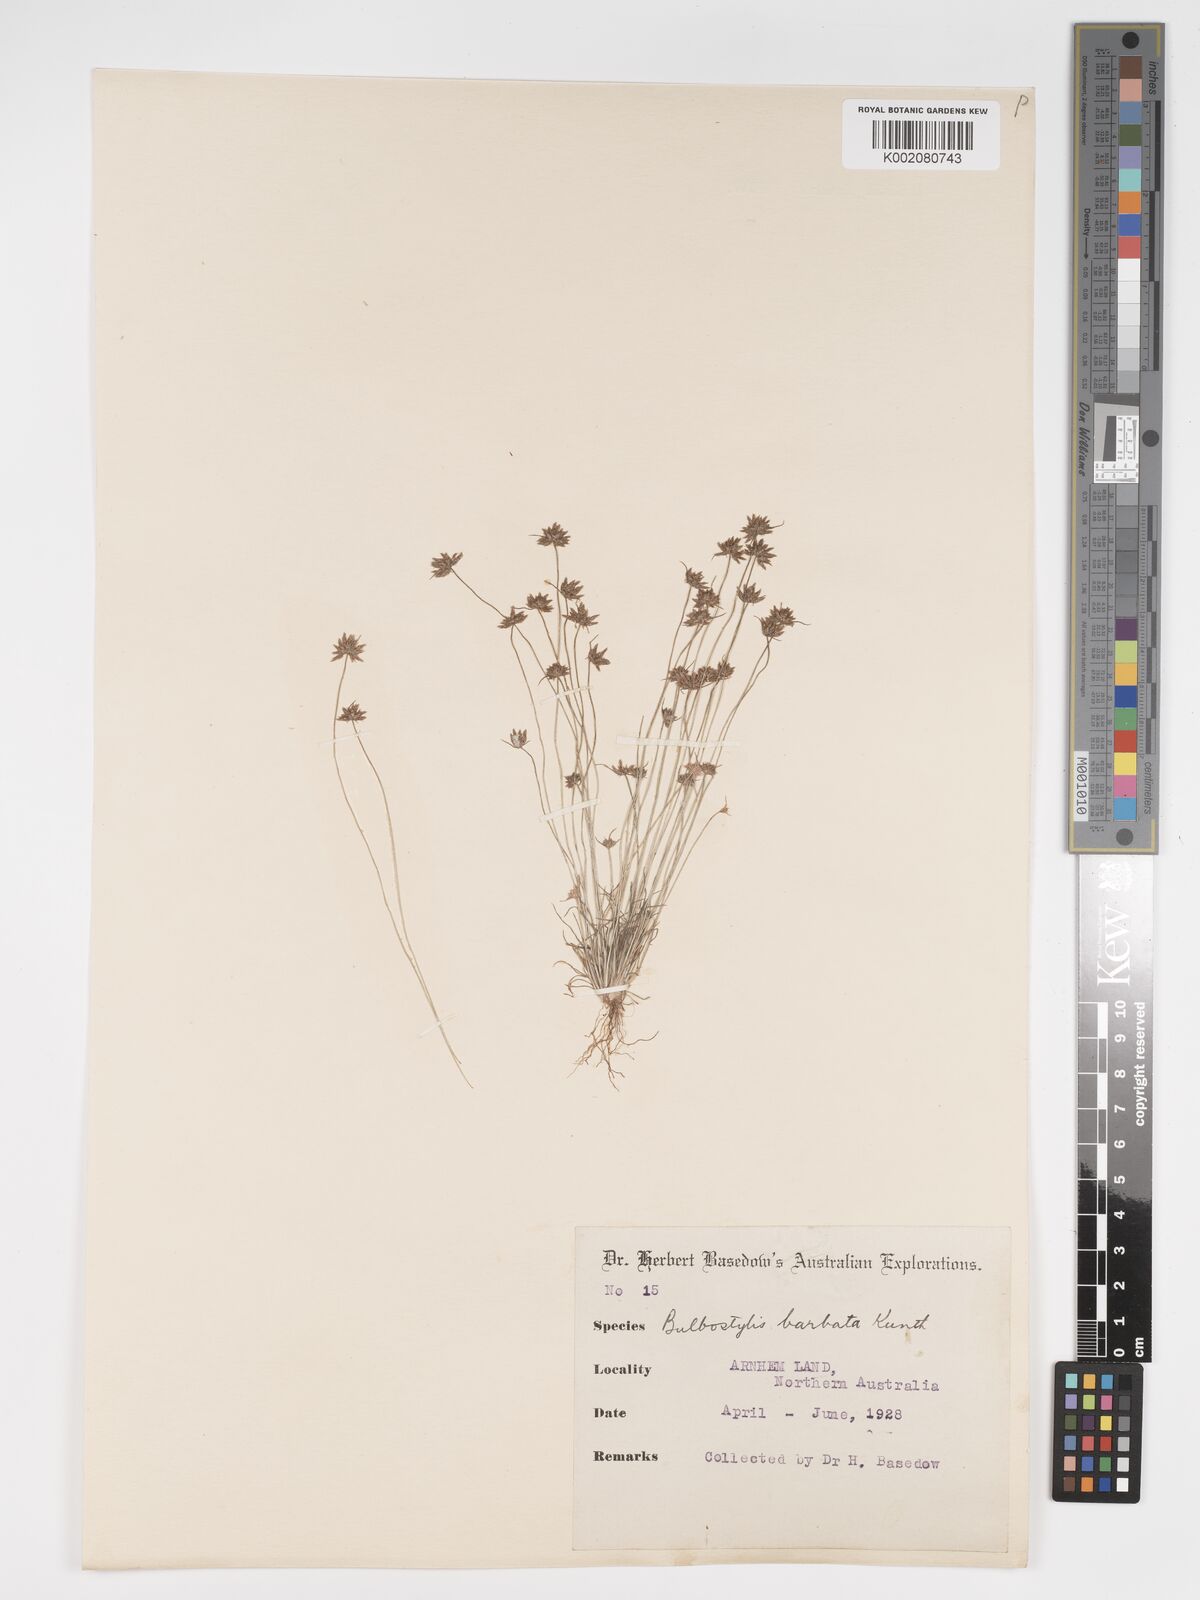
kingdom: Plantae
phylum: Tracheophyta
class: Liliopsida
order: Poales
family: Cyperaceae
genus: Bulbostylis
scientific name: Bulbostylis barbata
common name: Watergrass
